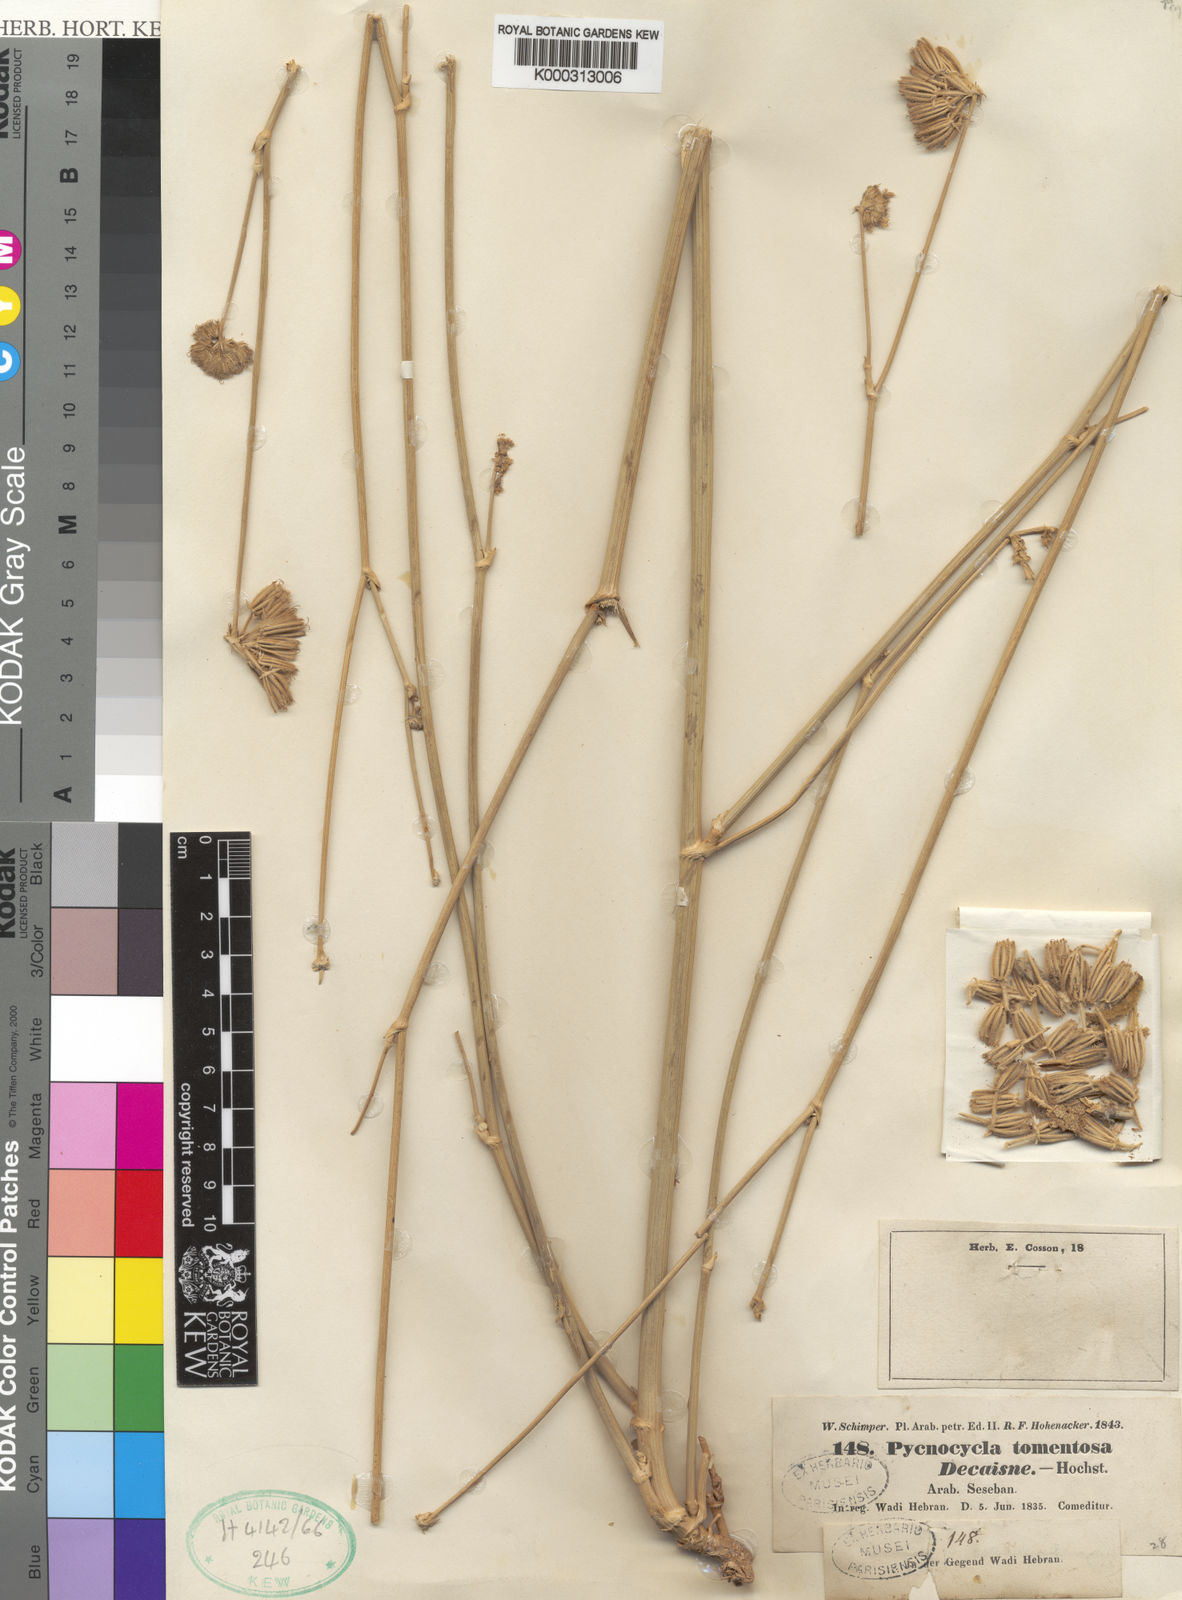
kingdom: Plantae
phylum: Tracheophyta
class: Magnoliopsida
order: Apiales
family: Apiaceae
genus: Pycnocycla
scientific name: Pycnocycla tomentosa
